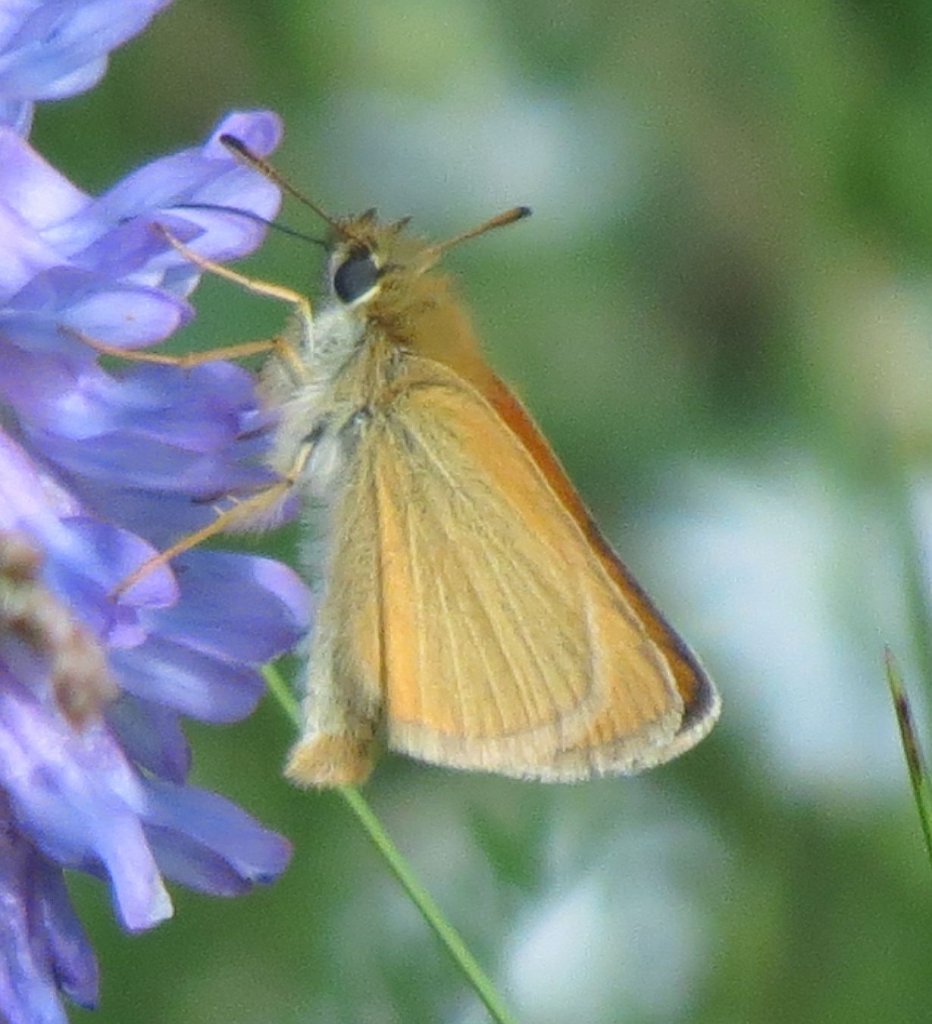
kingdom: Animalia
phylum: Arthropoda
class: Insecta
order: Lepidoptera
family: Hesperiidae
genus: Thymelicus
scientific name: Thymelicus lineola
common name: European Skipper
